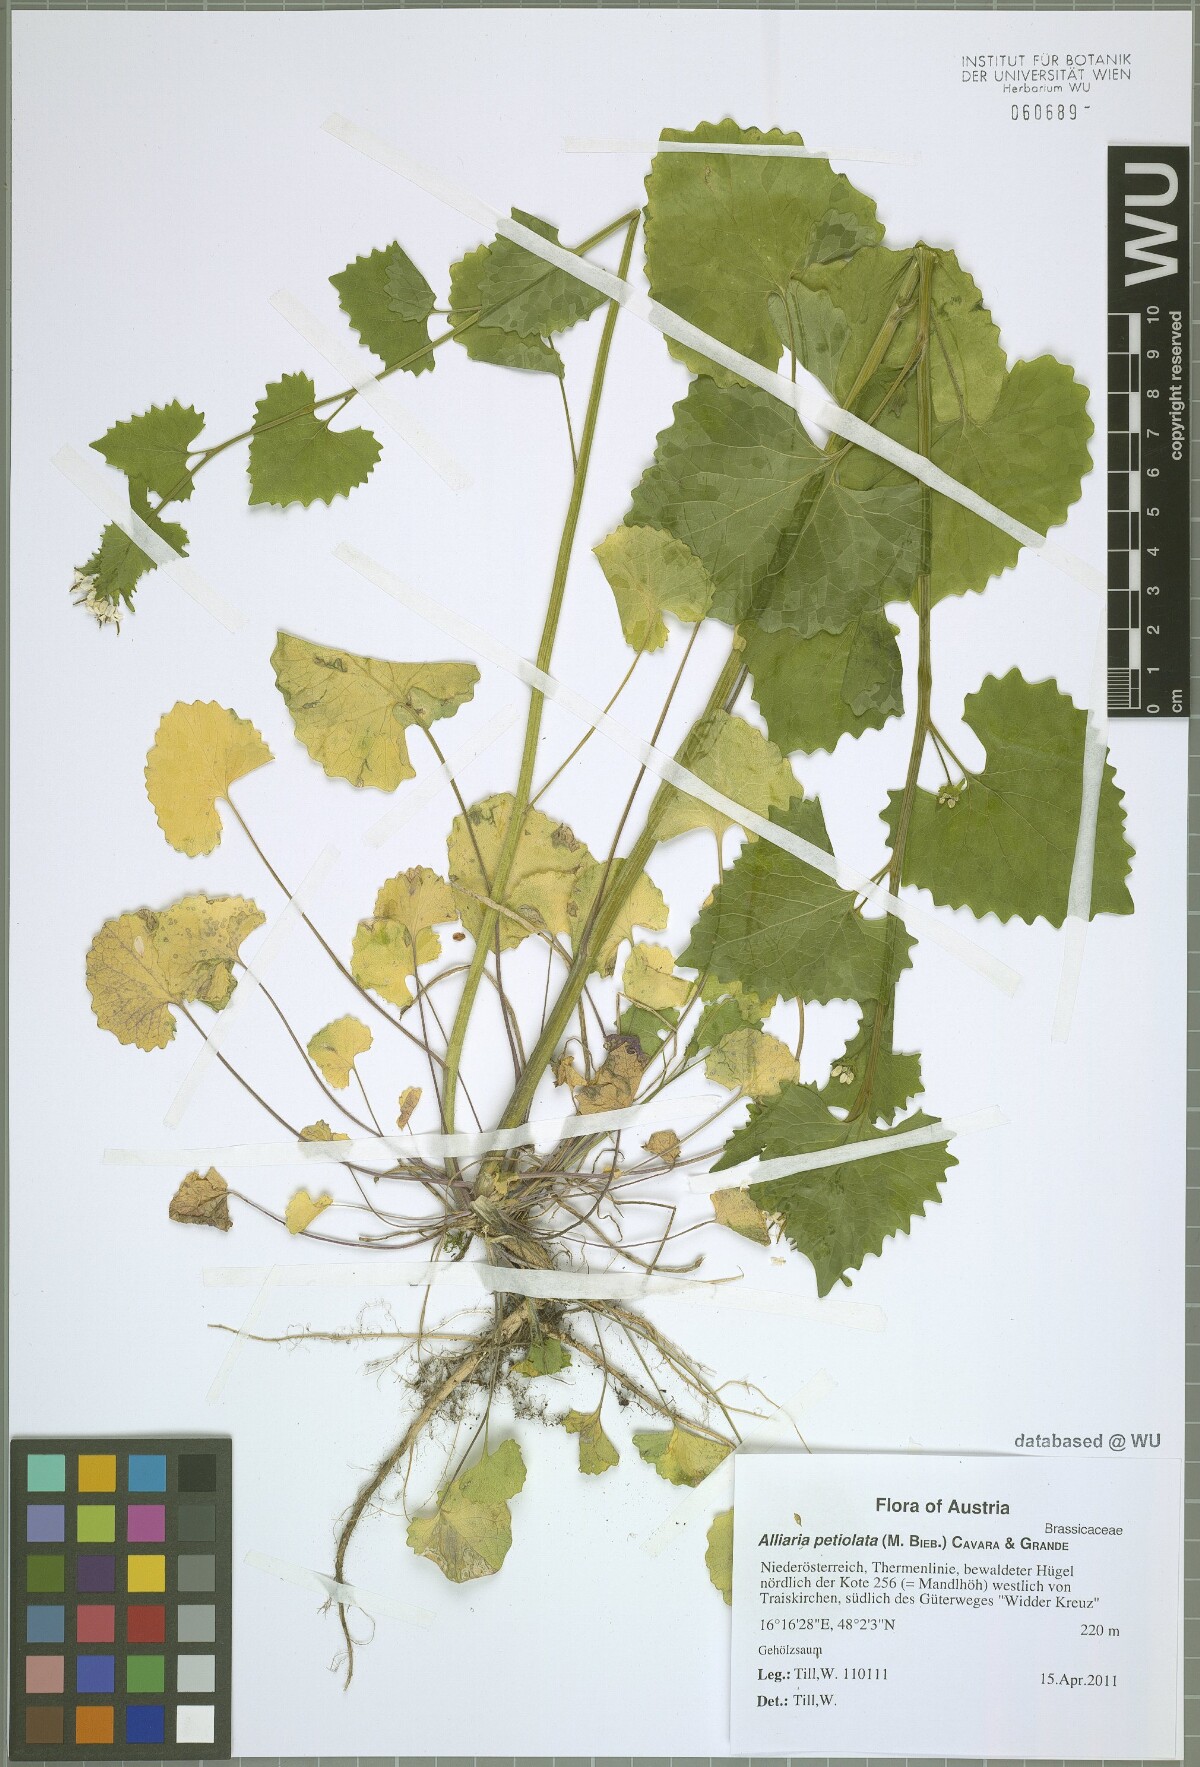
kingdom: Plantae
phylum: Tracheophyta
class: Magnoliopsida
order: Brassicales
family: Brassicaceae
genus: Alliaria
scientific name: Alliaria petiolata
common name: Garlic mustard
